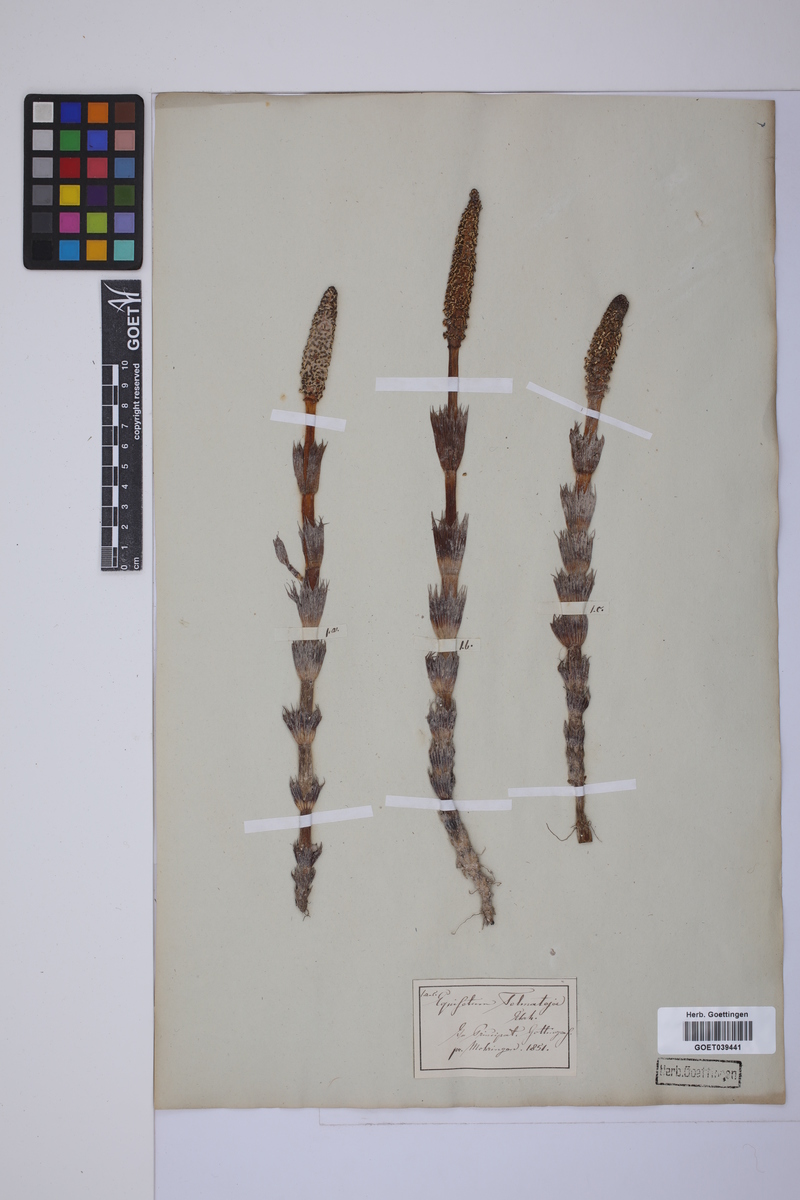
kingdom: Plantae
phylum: Tracheophyta
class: Polypodiopsida
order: Equisetales
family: Equisetaceae
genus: Equisetum
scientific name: Equisetum telmateia
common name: Great horsetail
